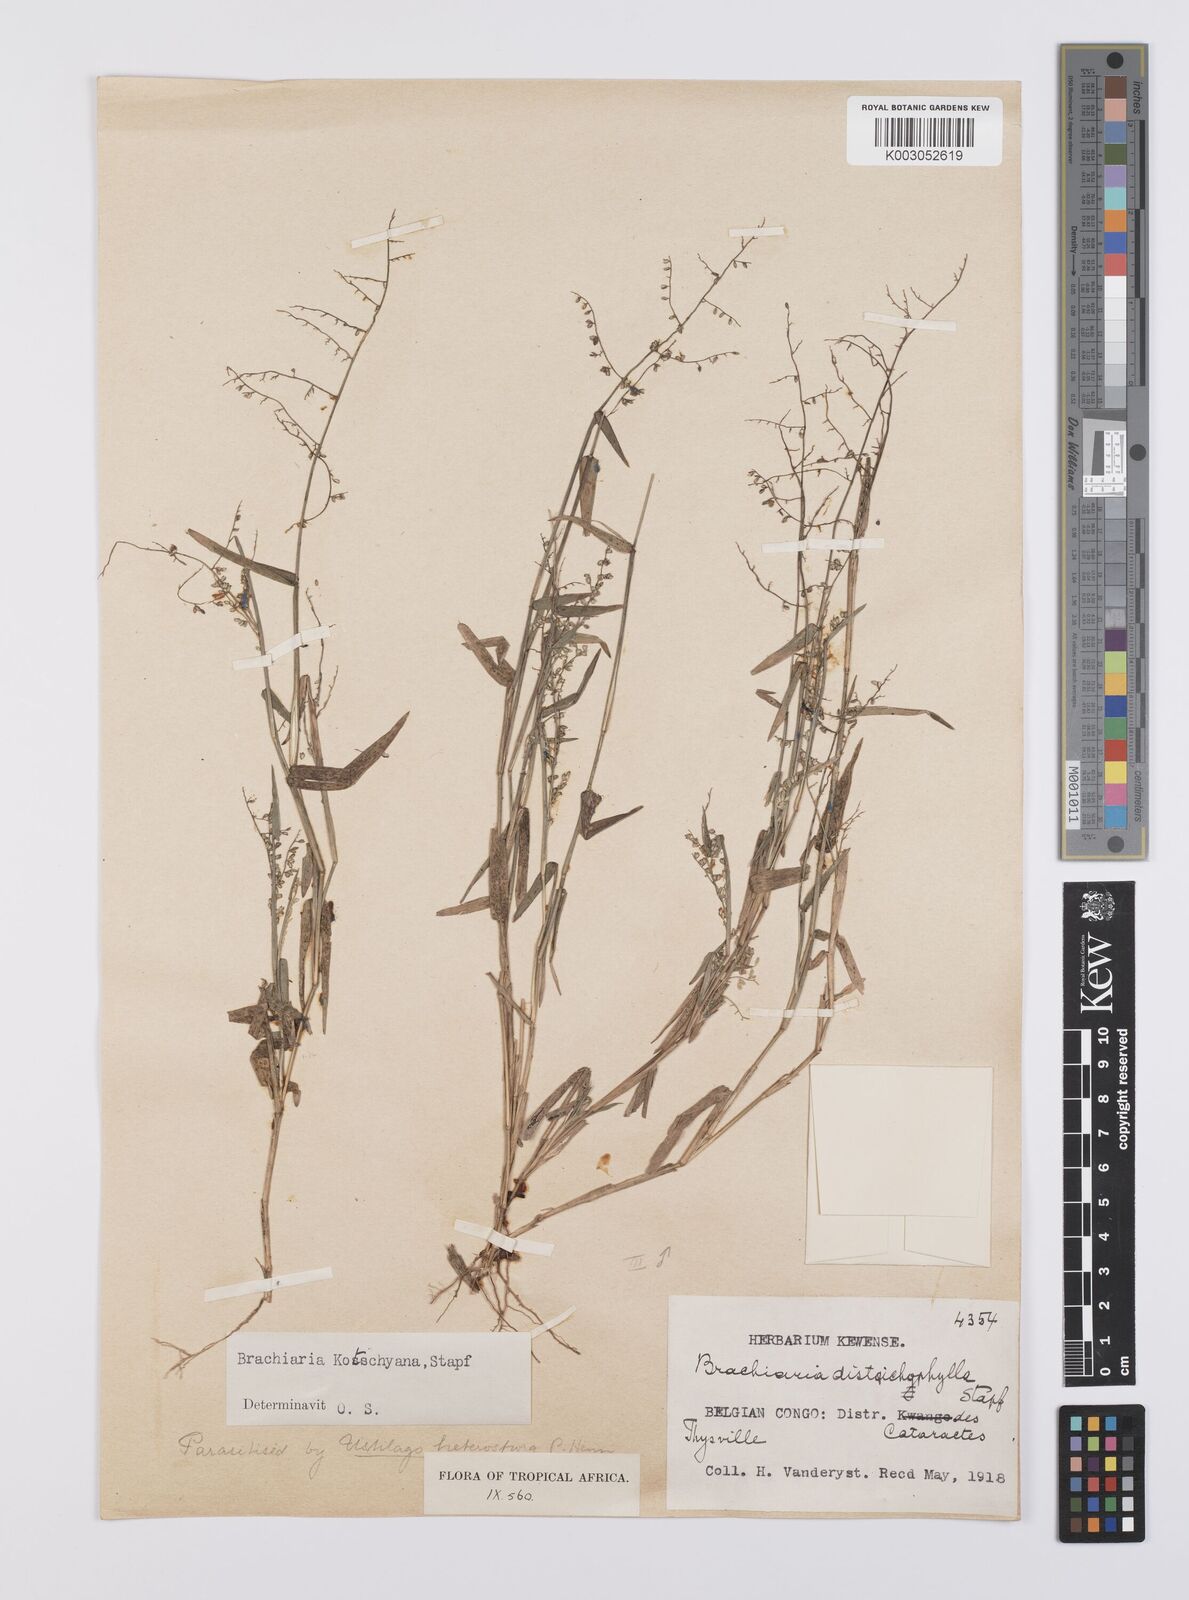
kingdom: Plantae
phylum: Tracheophyta
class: Liliopsida
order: Poales
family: Poaceae
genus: Urochloa
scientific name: Urochloa comata
